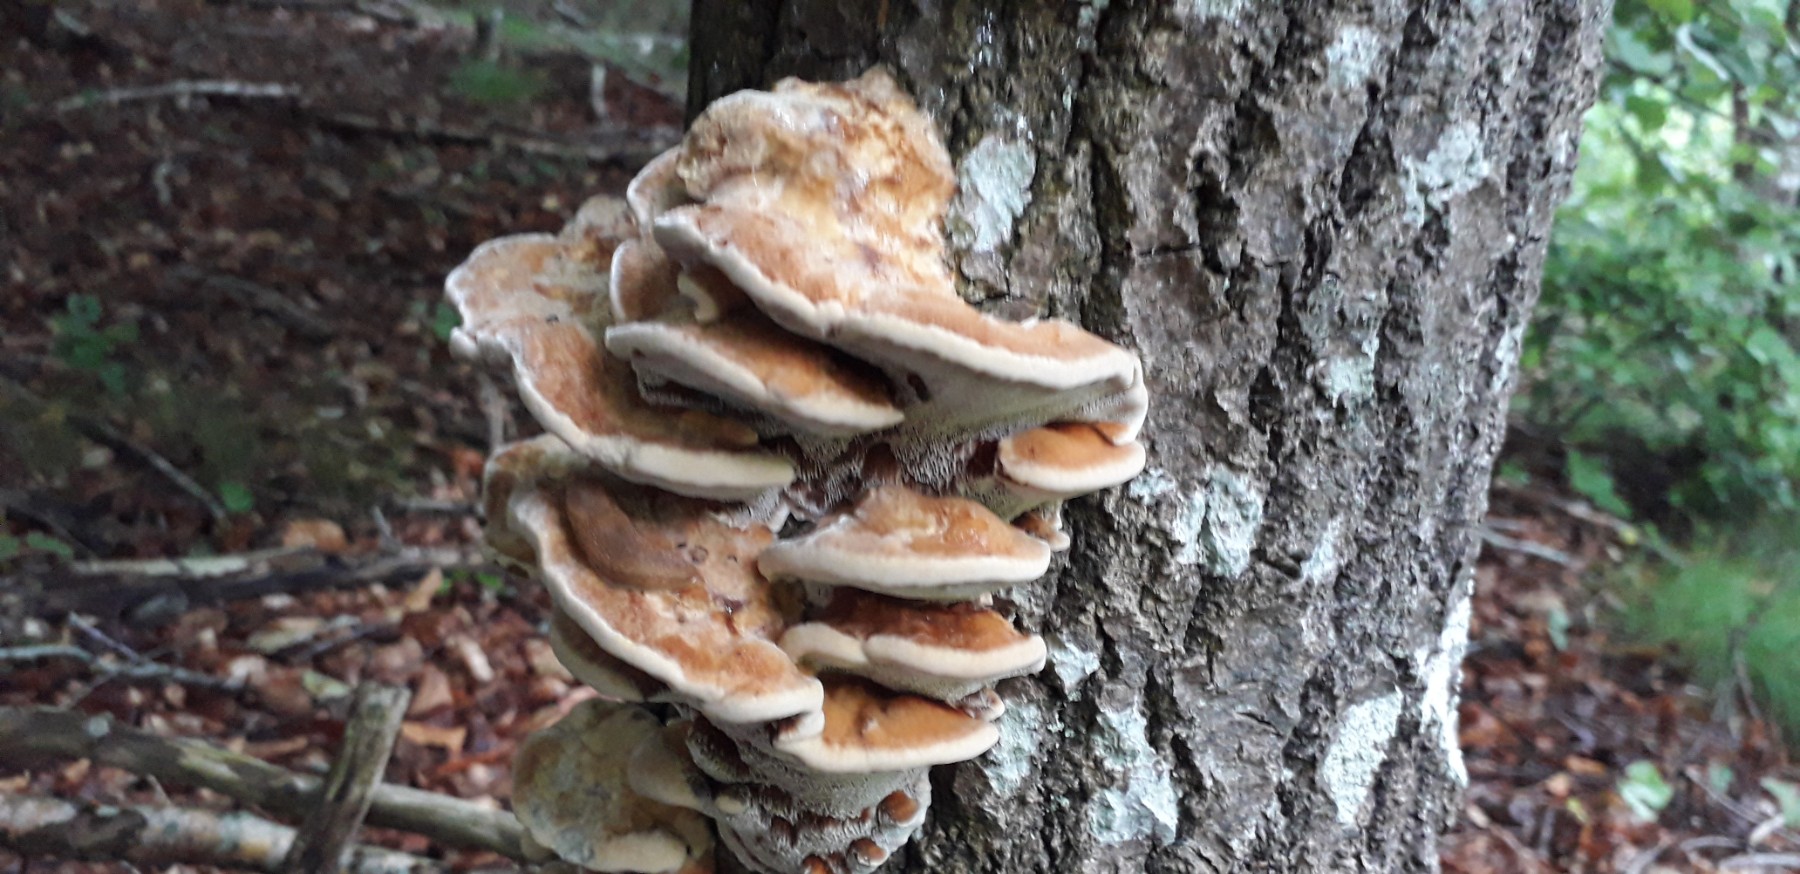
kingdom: Fungi
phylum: Basidiomycota
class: Agaricomycetes
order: Hymenochaetales
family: Hymenochaetaceae
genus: Inocutis
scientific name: Inocutis rheades
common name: ræve-spejlporesvamp
